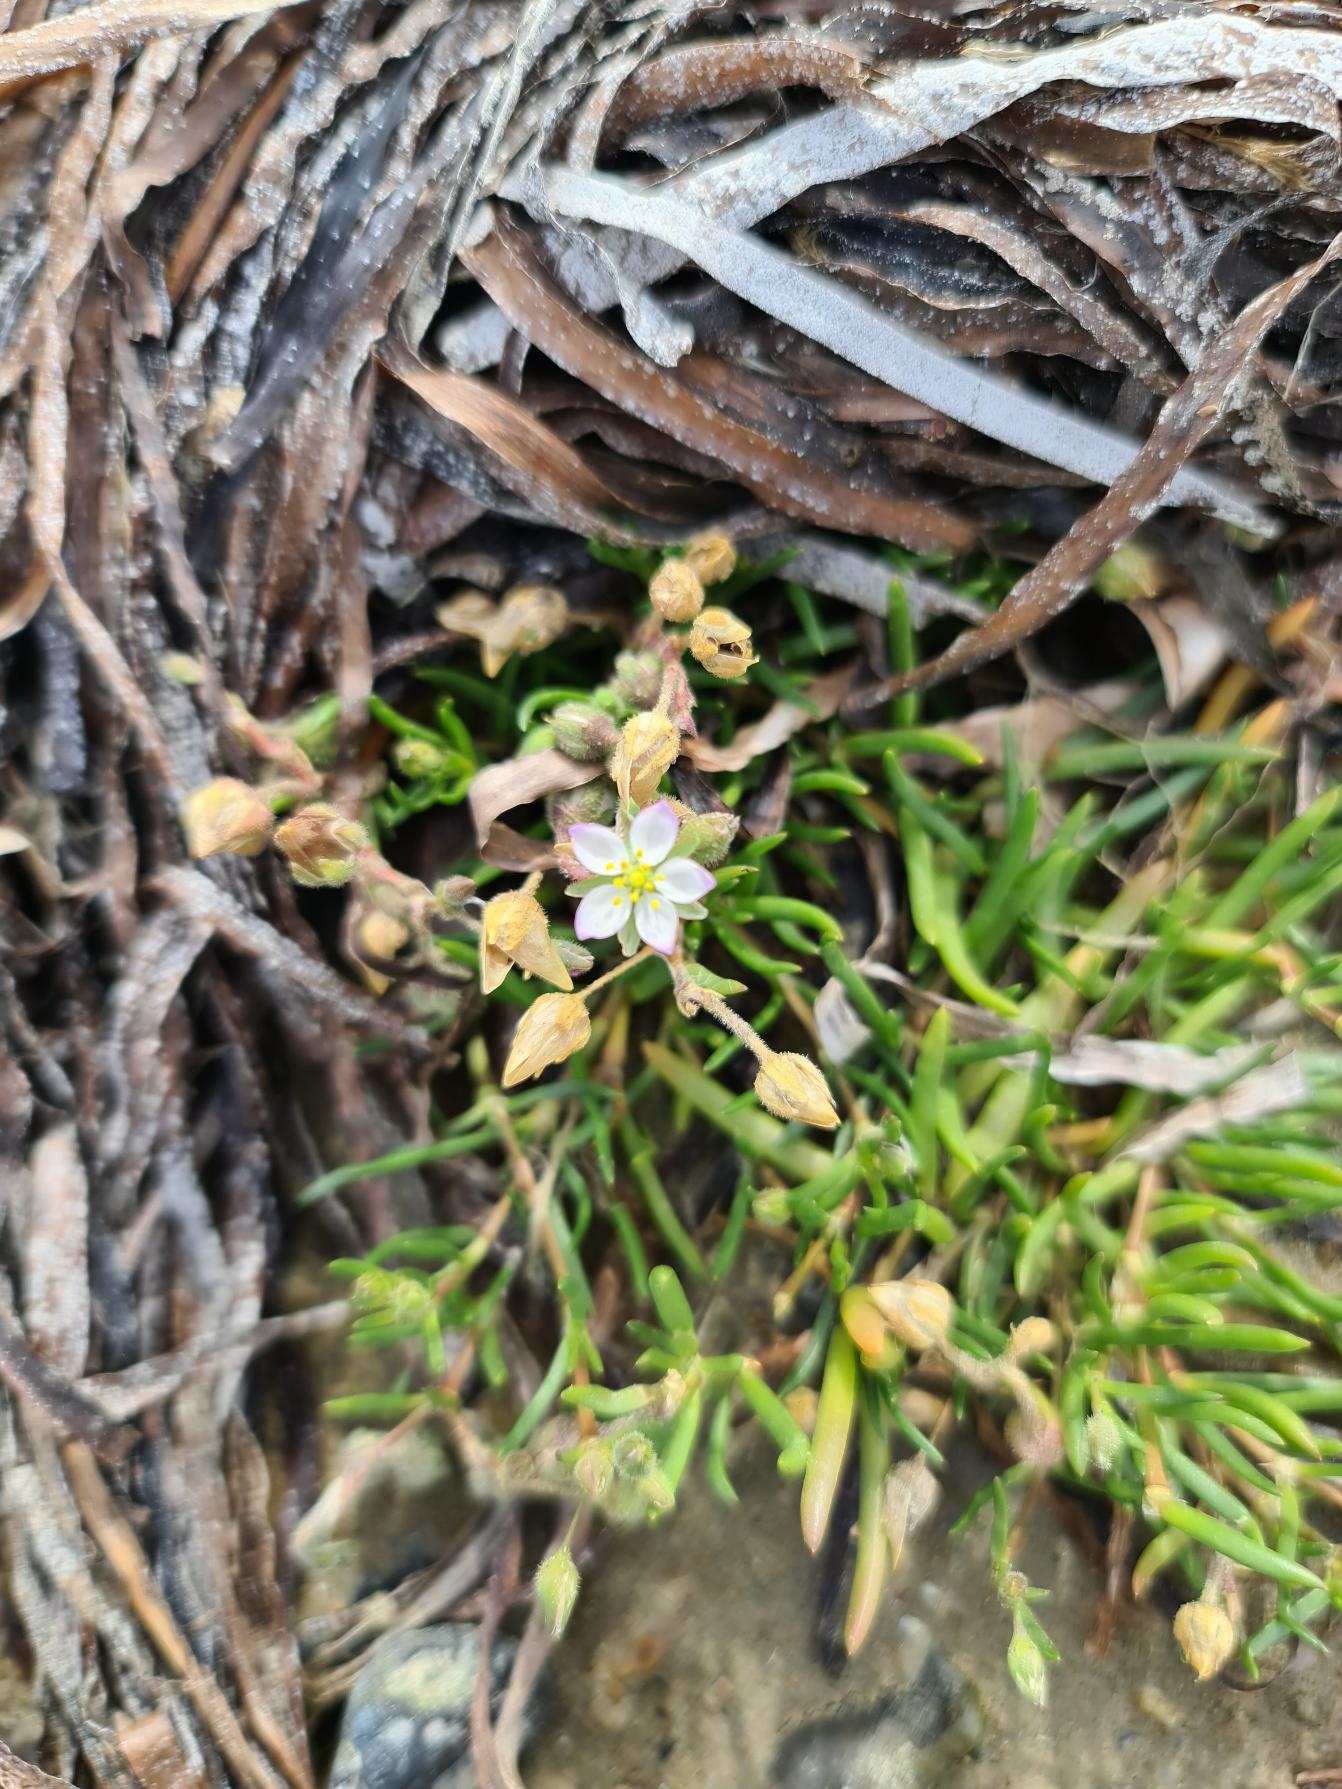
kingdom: Plantae
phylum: Tracheophyta
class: Magnoliopsida
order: Caryophyllales
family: Caryophyllaceae
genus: Spergularia
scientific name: Spergularia media
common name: Vingefrøet hindeknæ
